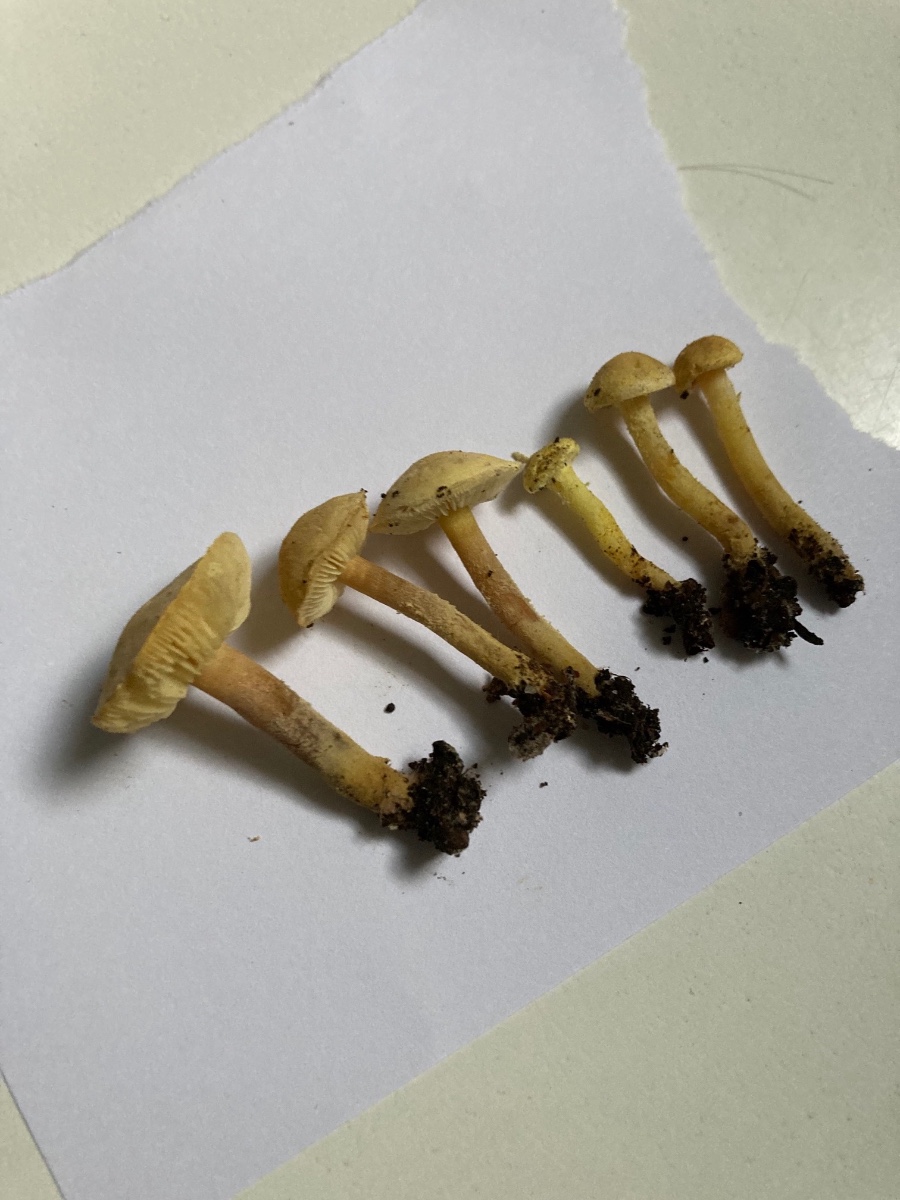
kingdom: Fungi
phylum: Basidiomycota
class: Agaricomycetes
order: Agaricales
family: Agaricaceae
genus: Cystolepiota
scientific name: Cystolepiota icterina
